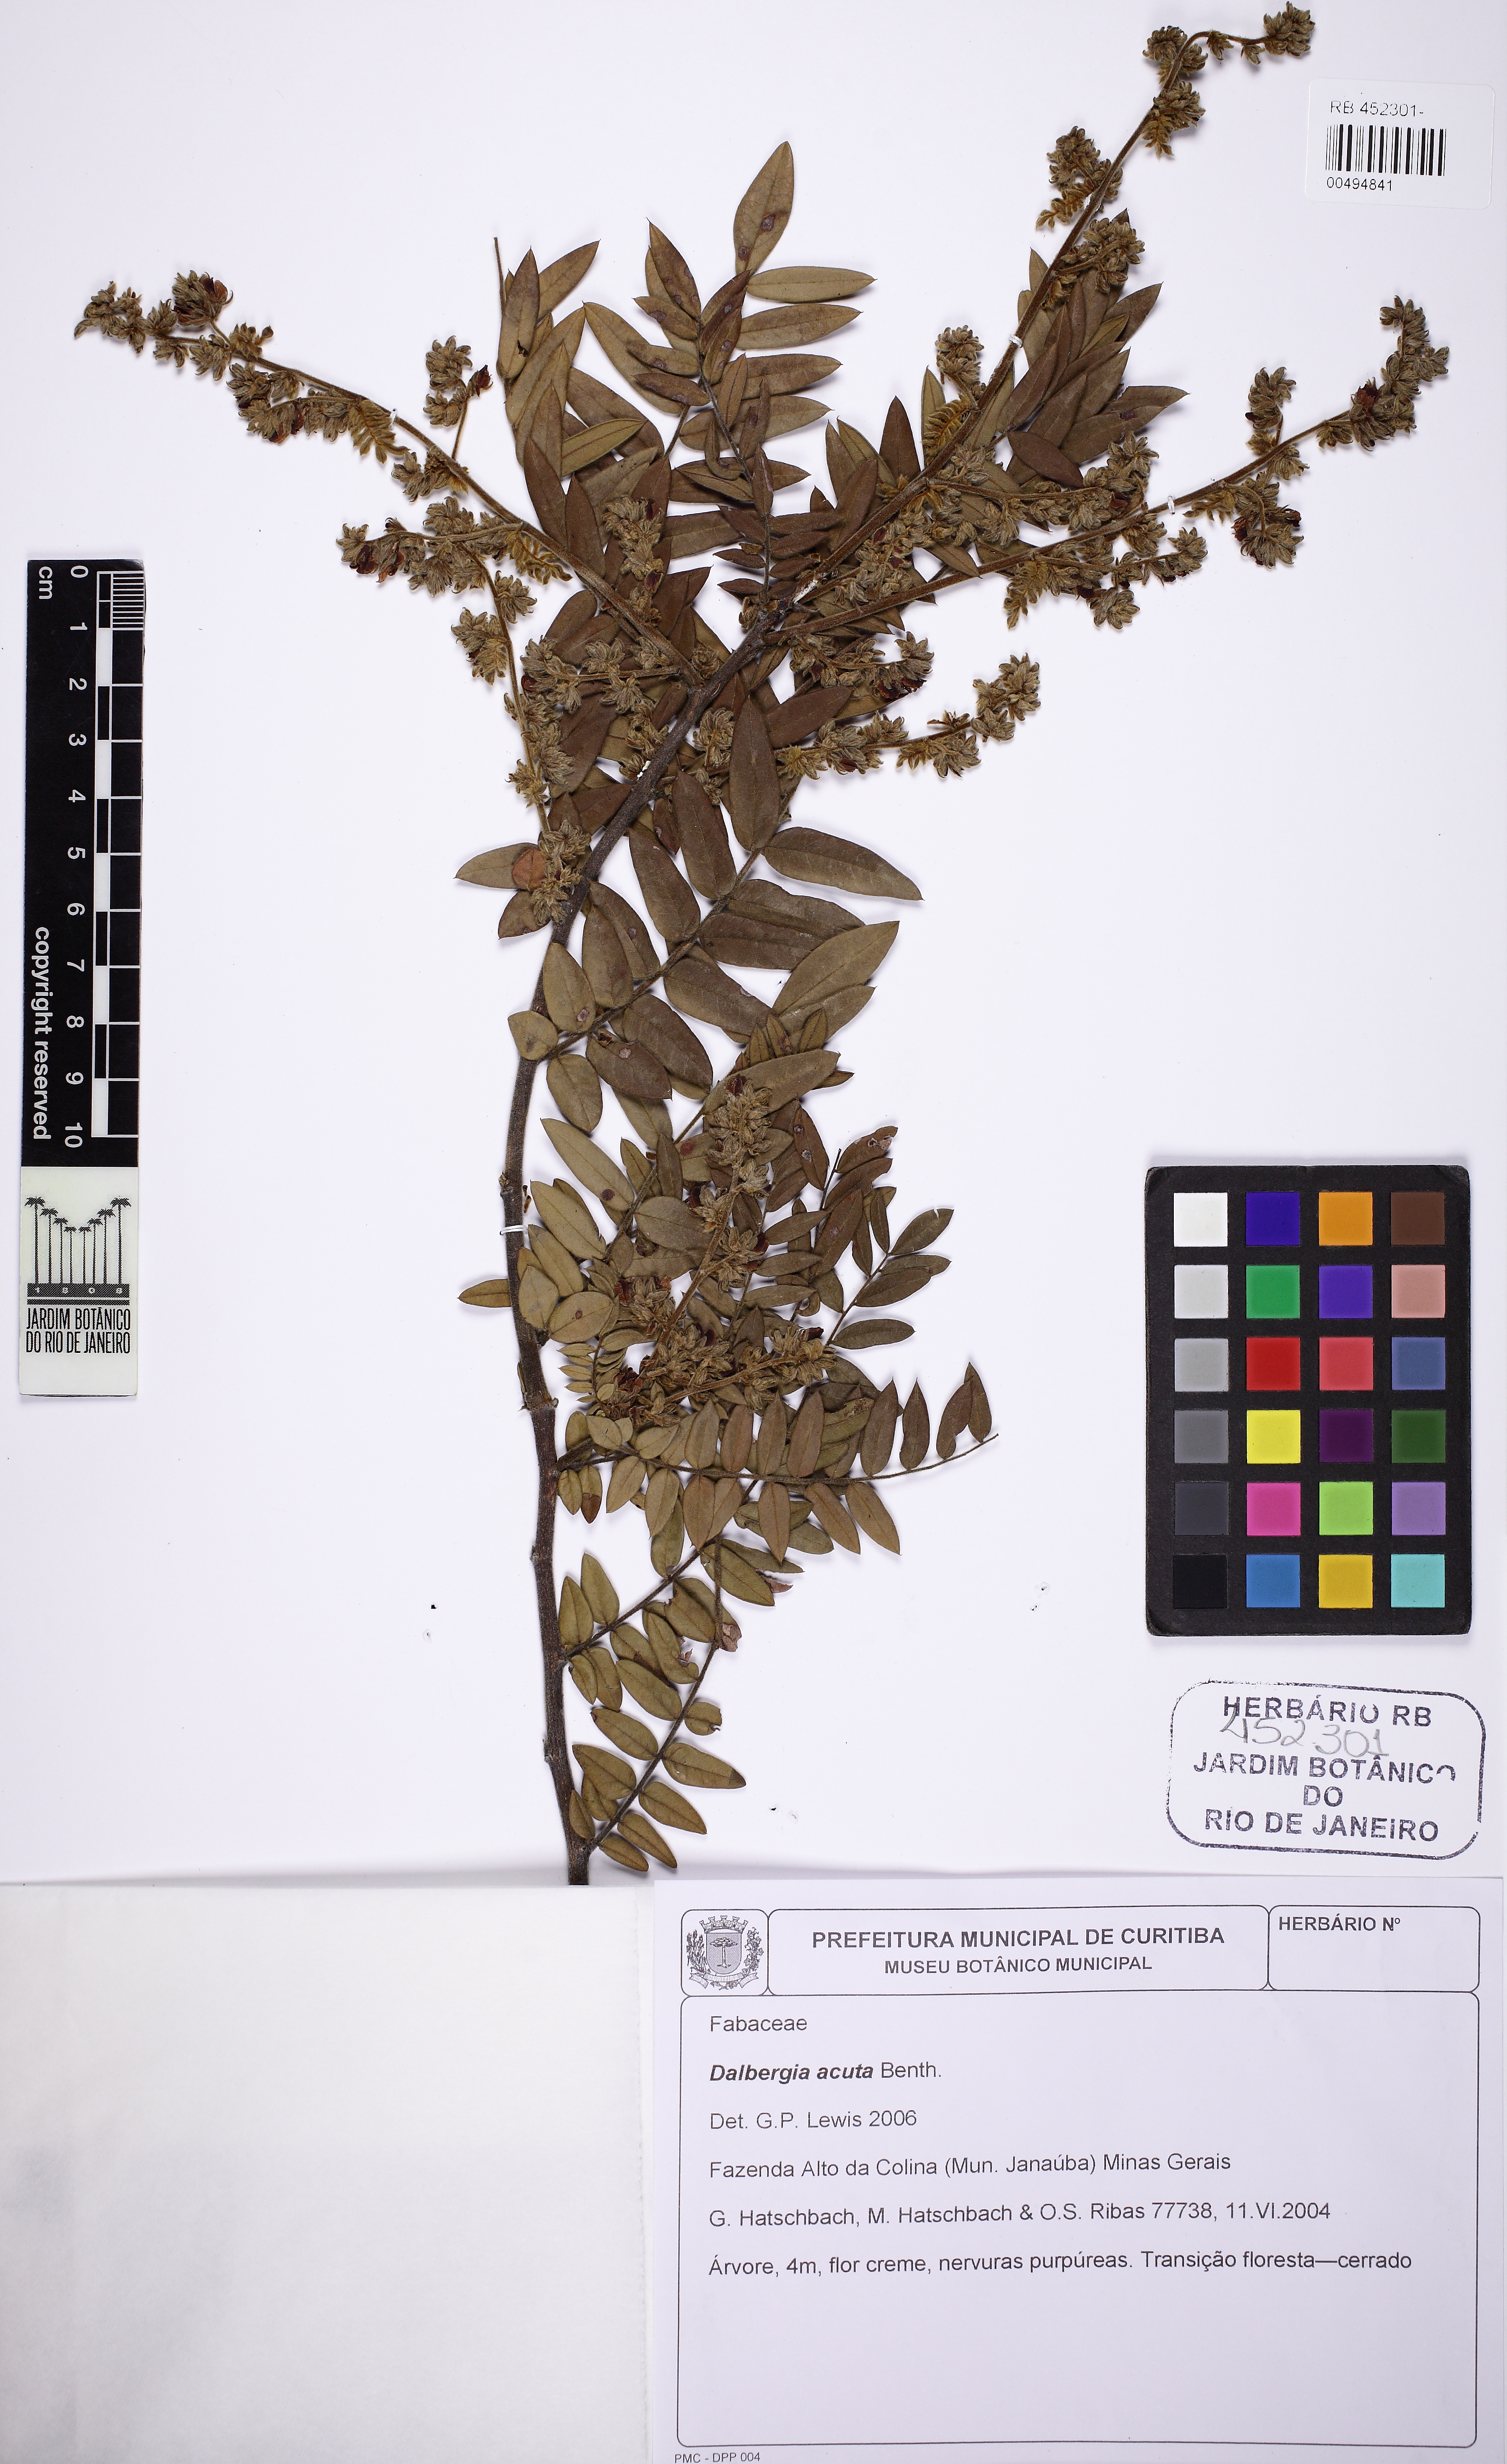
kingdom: Plantae
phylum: Tracheophyta
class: Magnoliopsida
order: Fabales
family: Fabaceae
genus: Dalbergia
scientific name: Dalbergia acuta
